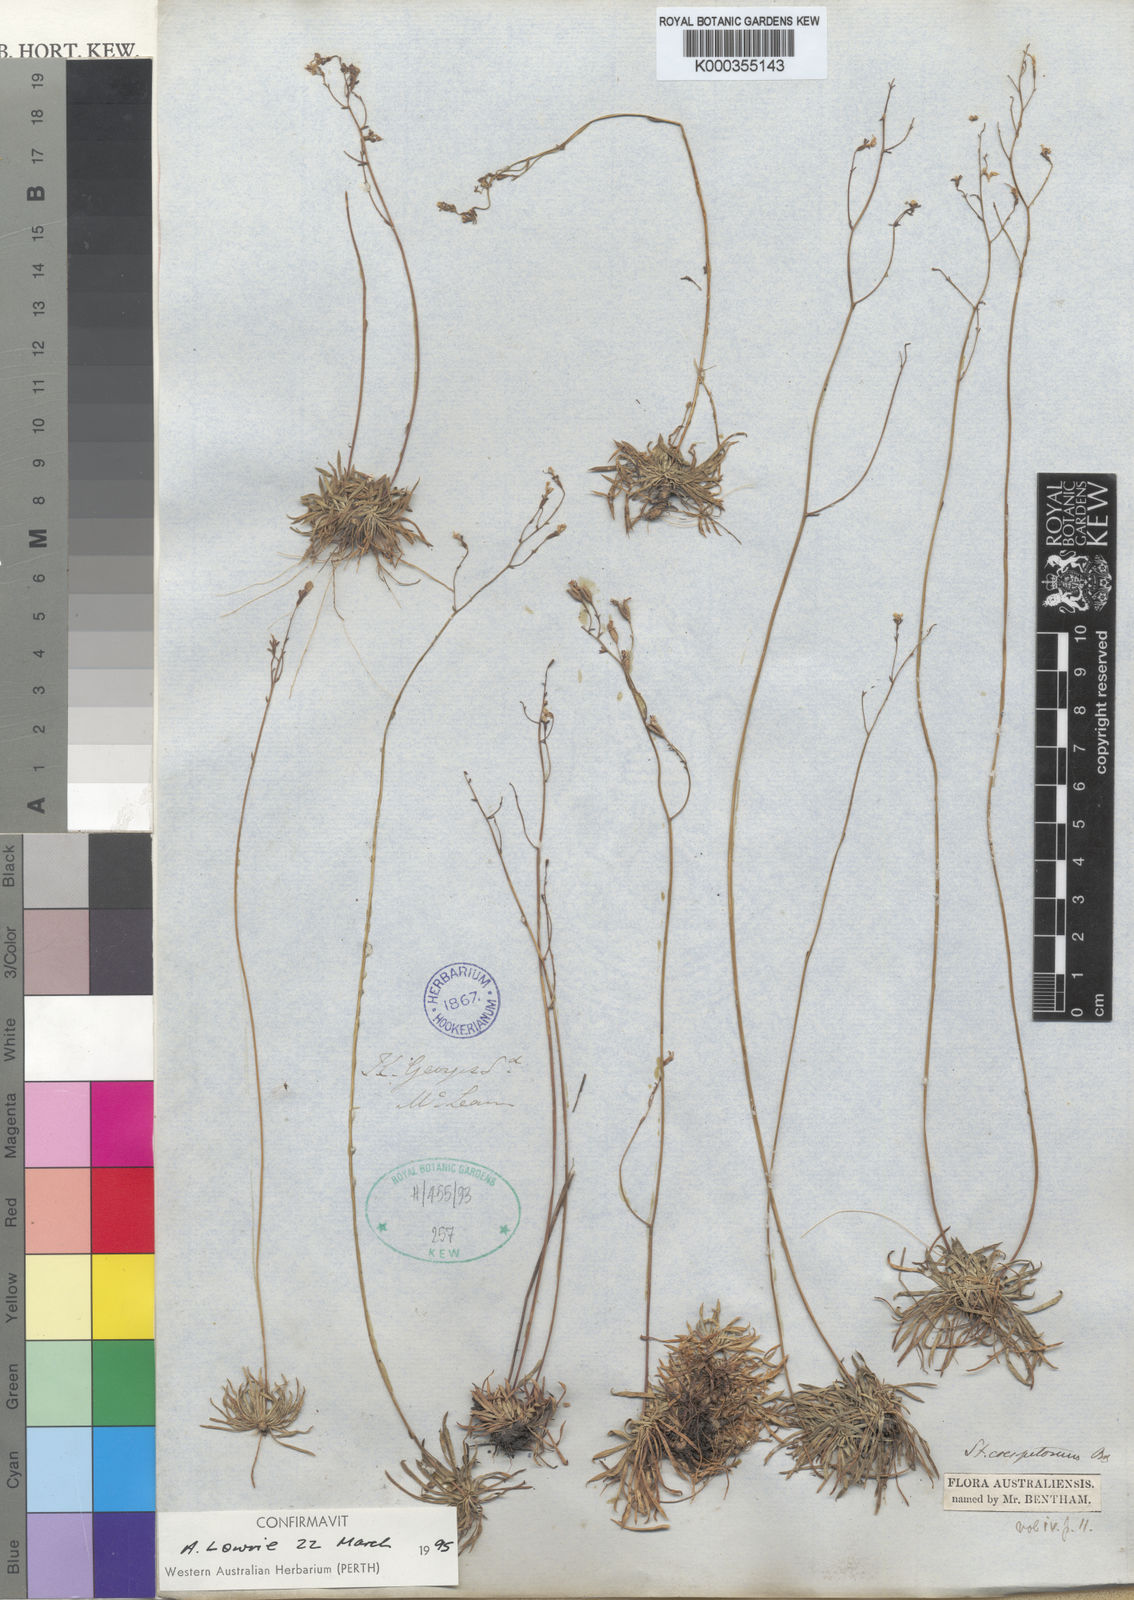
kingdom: Plantae
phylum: Tracheophyta
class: Magnoliopsida
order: Asterales
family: Stylidiaceae
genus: Stylidium
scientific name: Stylidium caespitosum
